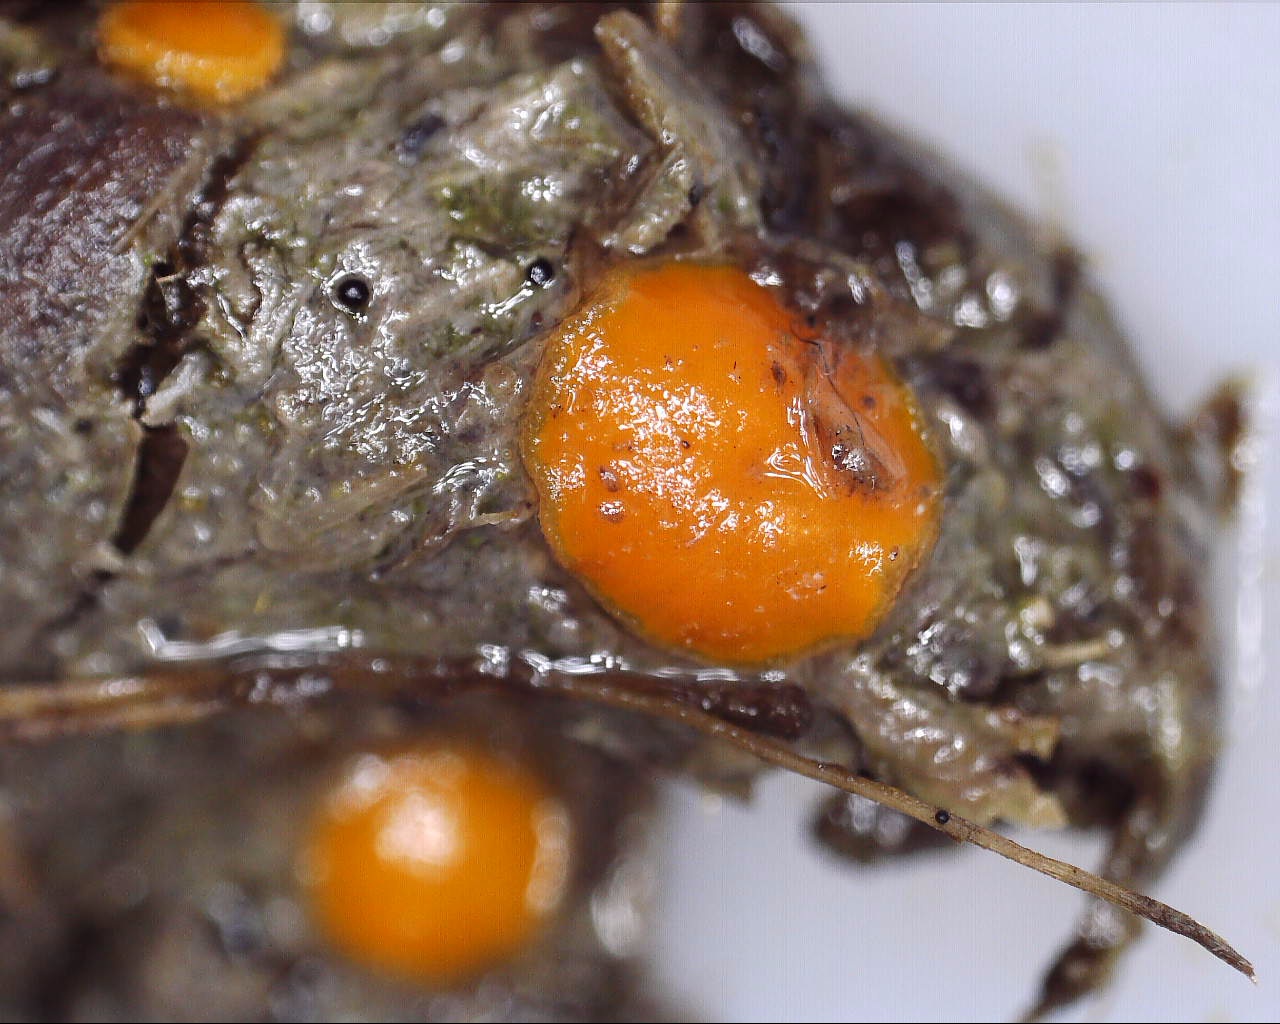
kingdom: Fungi
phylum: Ascomycota
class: Pezizomycetes
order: Pezizales
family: Pyronemataceae
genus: Cheilymenia
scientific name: Cheilymenia granulata
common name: møgbæger
